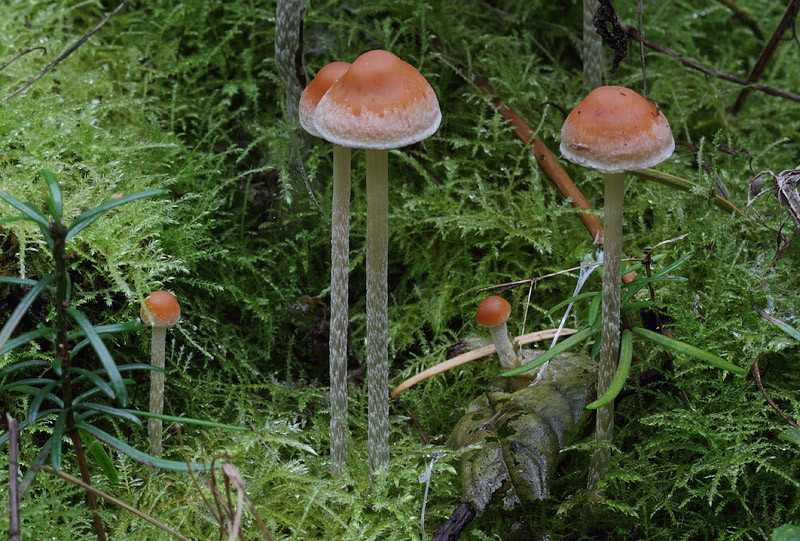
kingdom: Fungi
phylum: Basidiomycota
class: Agaricomycetes
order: Agaricales
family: Strophariaceae
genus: Hypholoma
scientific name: Hypholoma marginatum
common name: enlig svovlhat
